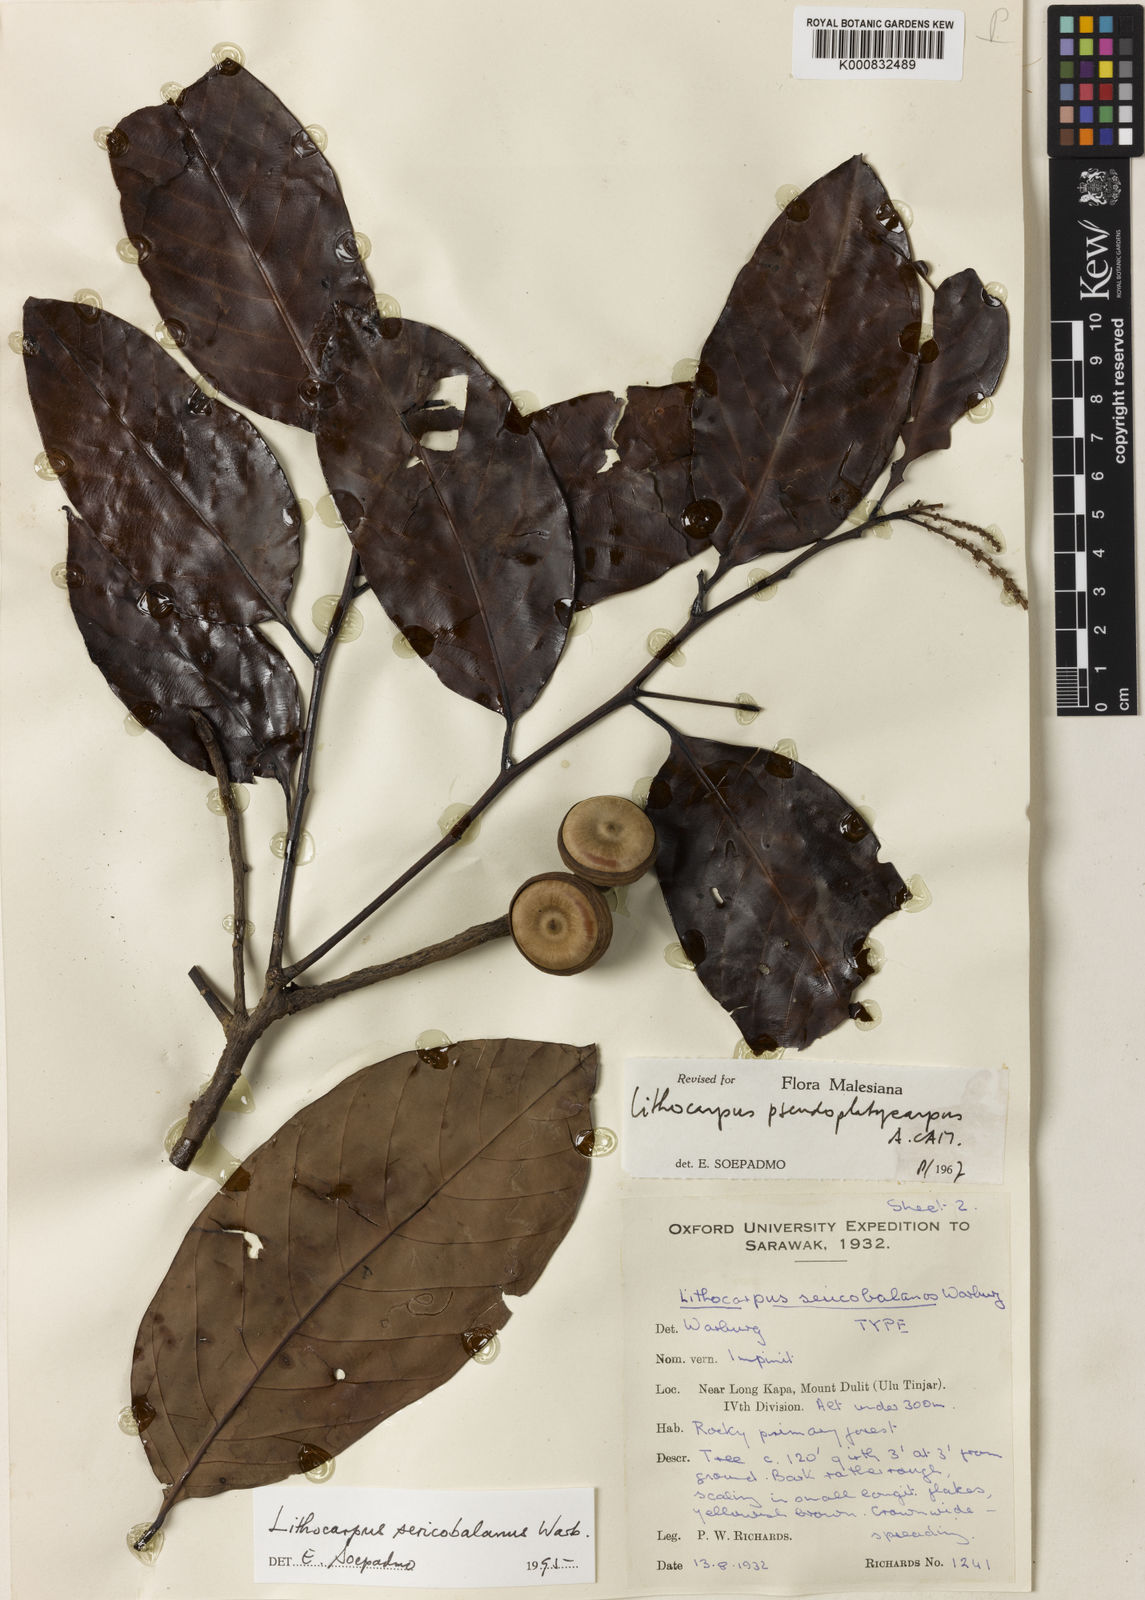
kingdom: Plantae
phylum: Tracheophyta
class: Magnoliopsida
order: Fagales
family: Fagaceae
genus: Lithocarpus
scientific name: Lithocarpus sericobalanos
